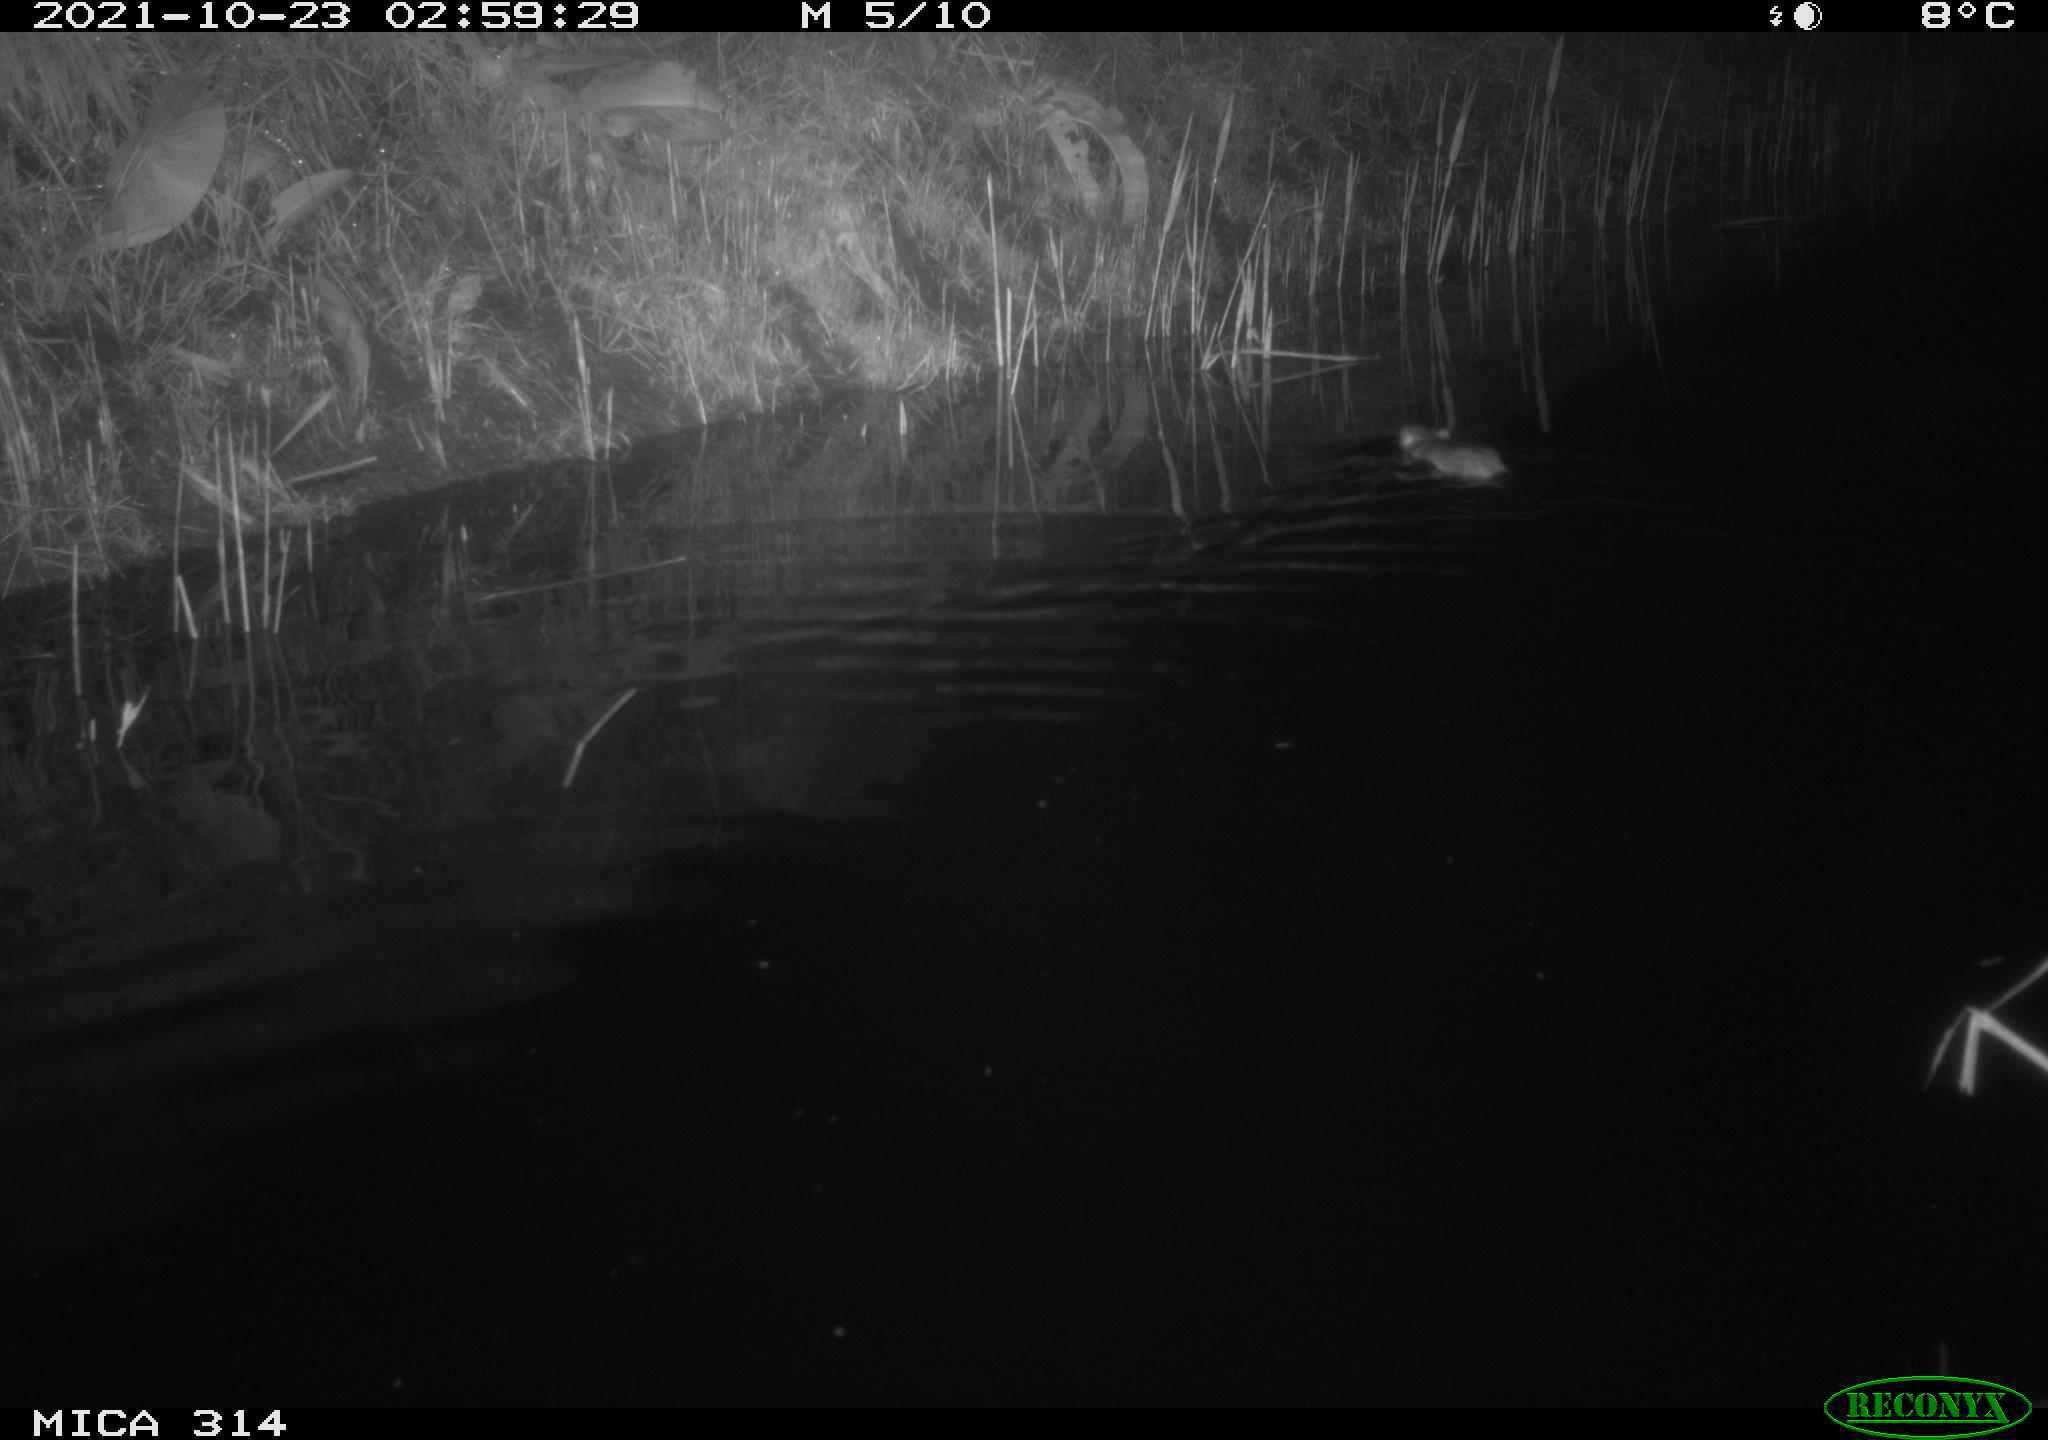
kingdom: Animalia
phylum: Chordata
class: Mammalia
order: Rodentia
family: Muridae
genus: Rattus
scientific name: Rattus norvegicus
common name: Brown rat
